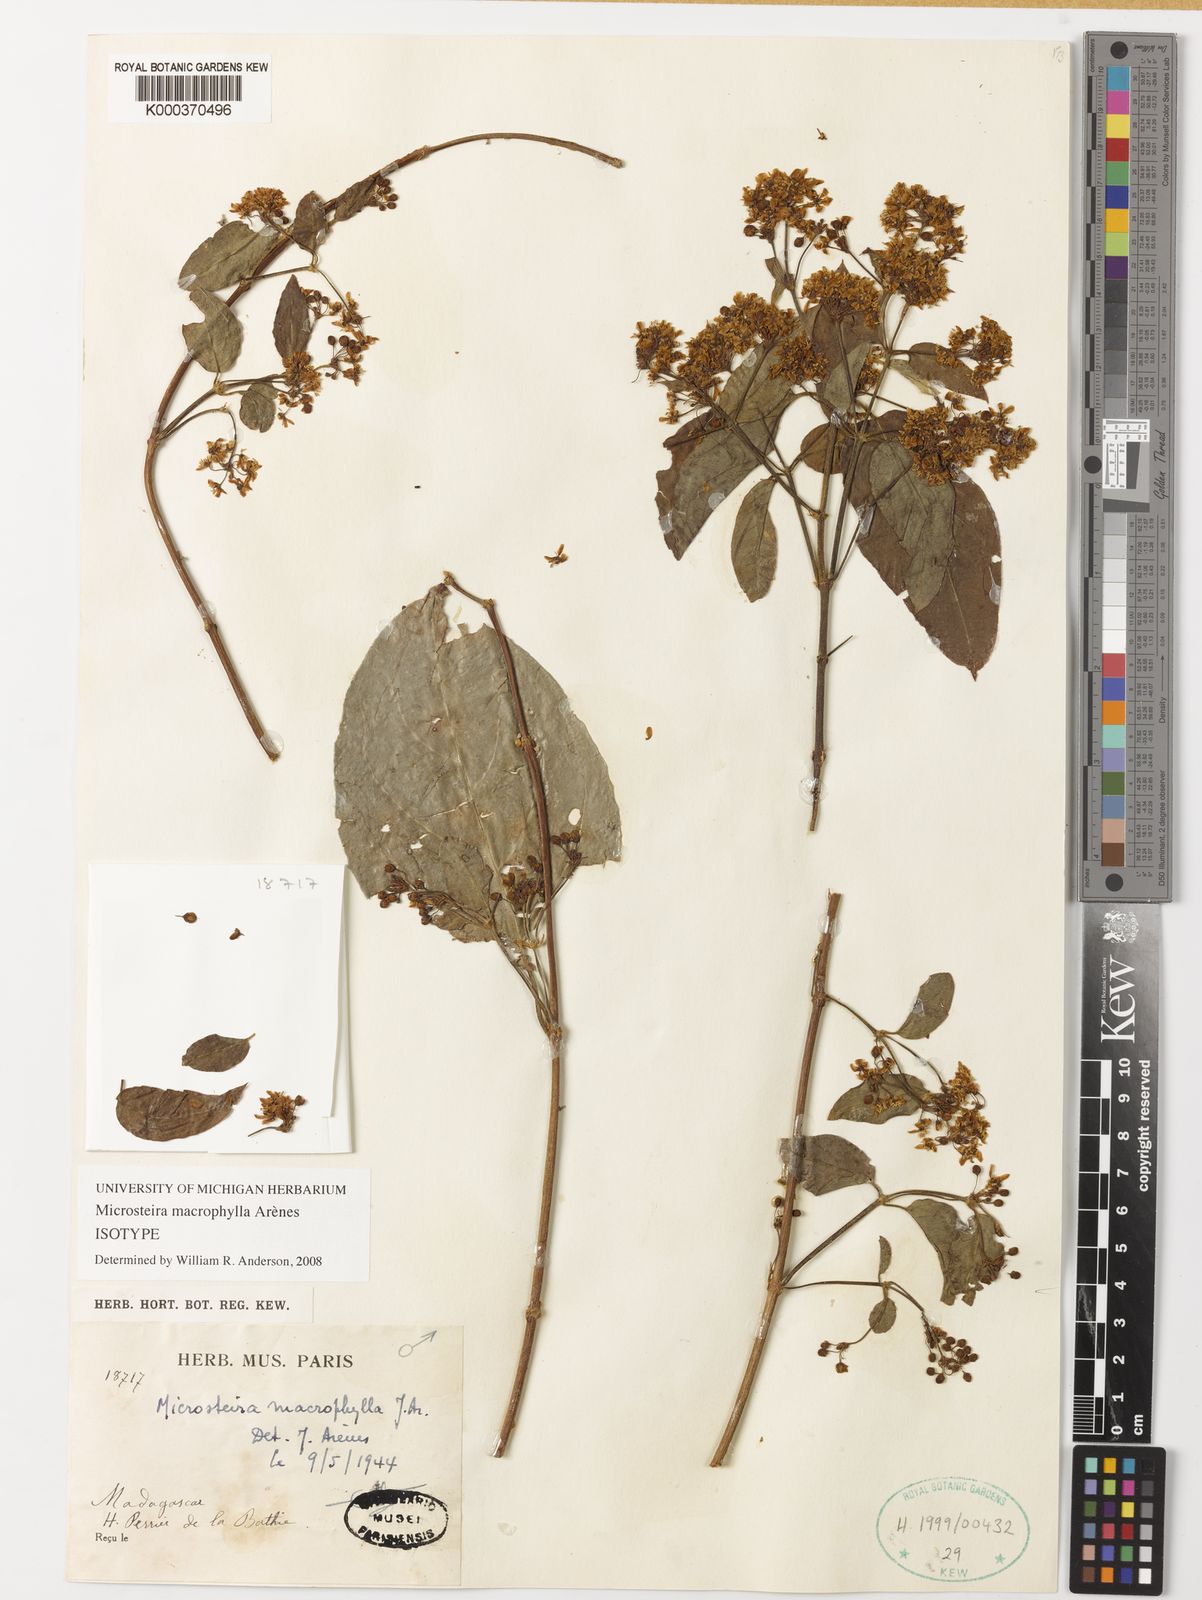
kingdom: Plantae
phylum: Tracheophyta
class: Magnoliopsida
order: Malpighiales
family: Malpighiaceae
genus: Microsteira
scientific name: Microsteira
